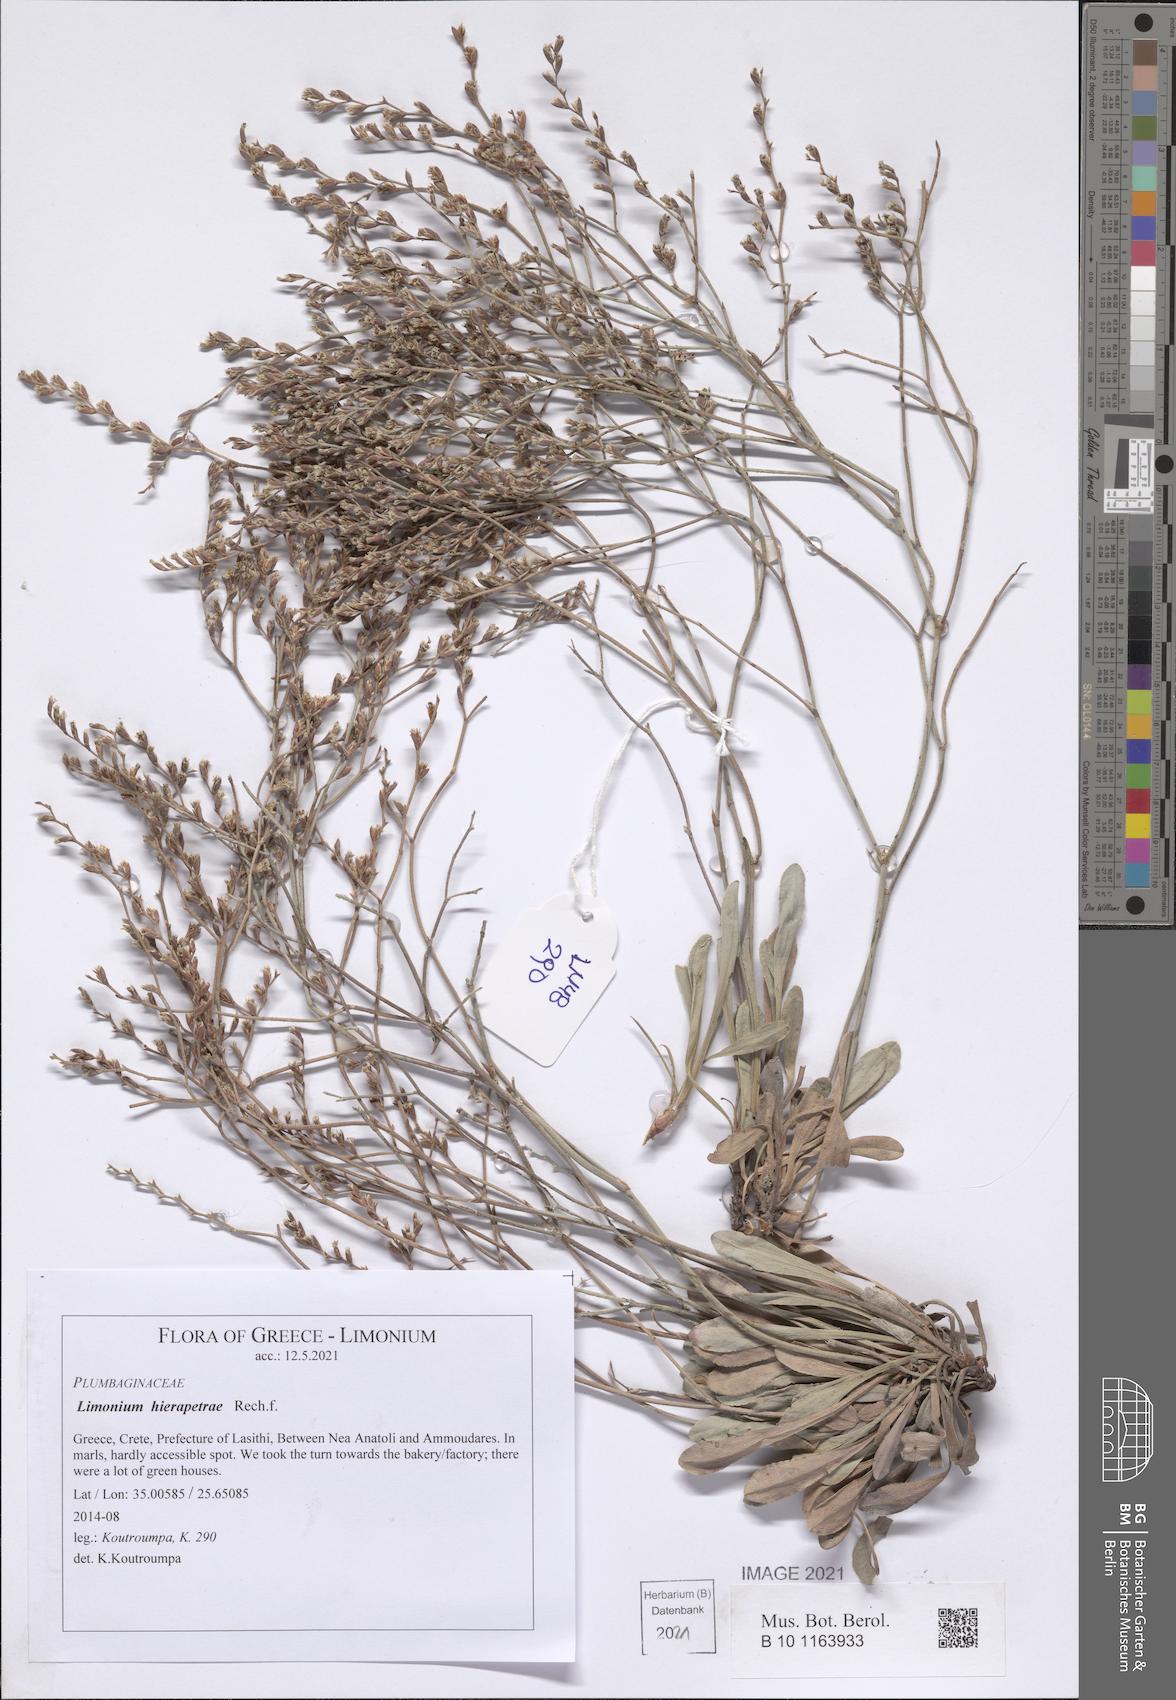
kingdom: Plantae
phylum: Tracheophyta
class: Magnoliopsida
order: Caryophyllales
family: Plumbaginaceae
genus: Limonium
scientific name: Limonium hierapetrae
